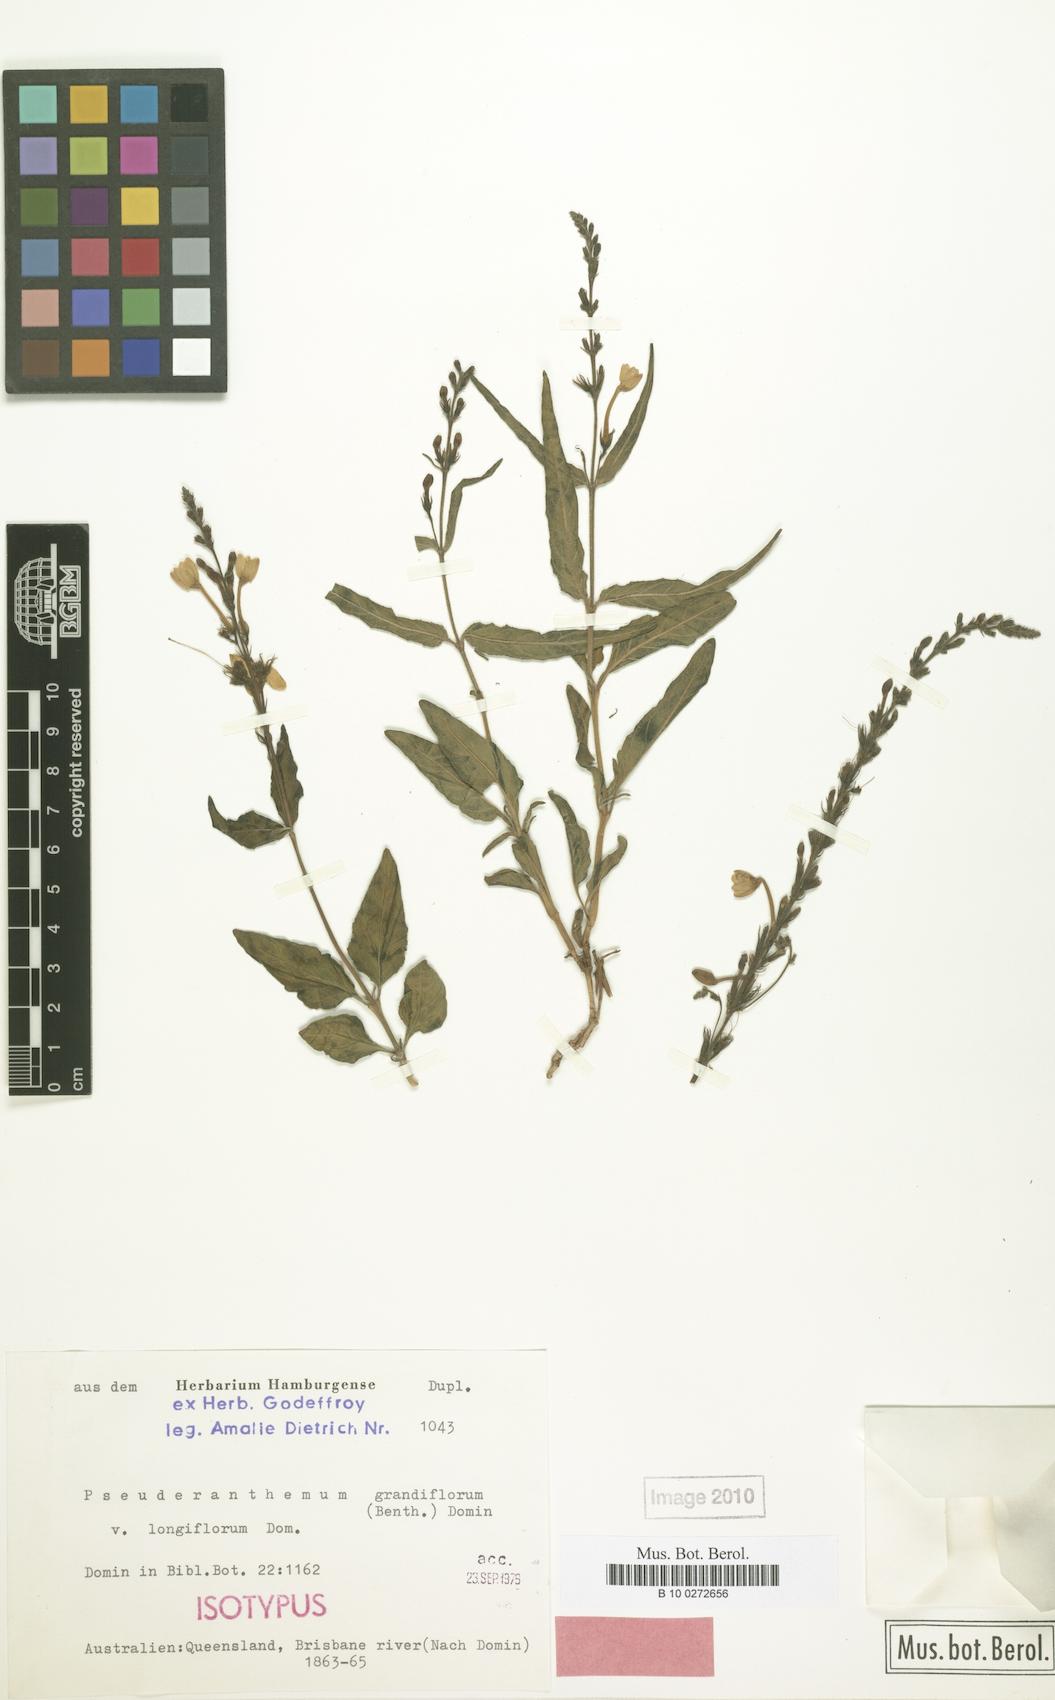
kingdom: Plantae
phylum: Tracheophyta
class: Magnoliopsida
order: Lamiales
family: Acanthaceae
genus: Pseuderanthemum
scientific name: Pseuderanthemum variabile
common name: Night and afternoon
